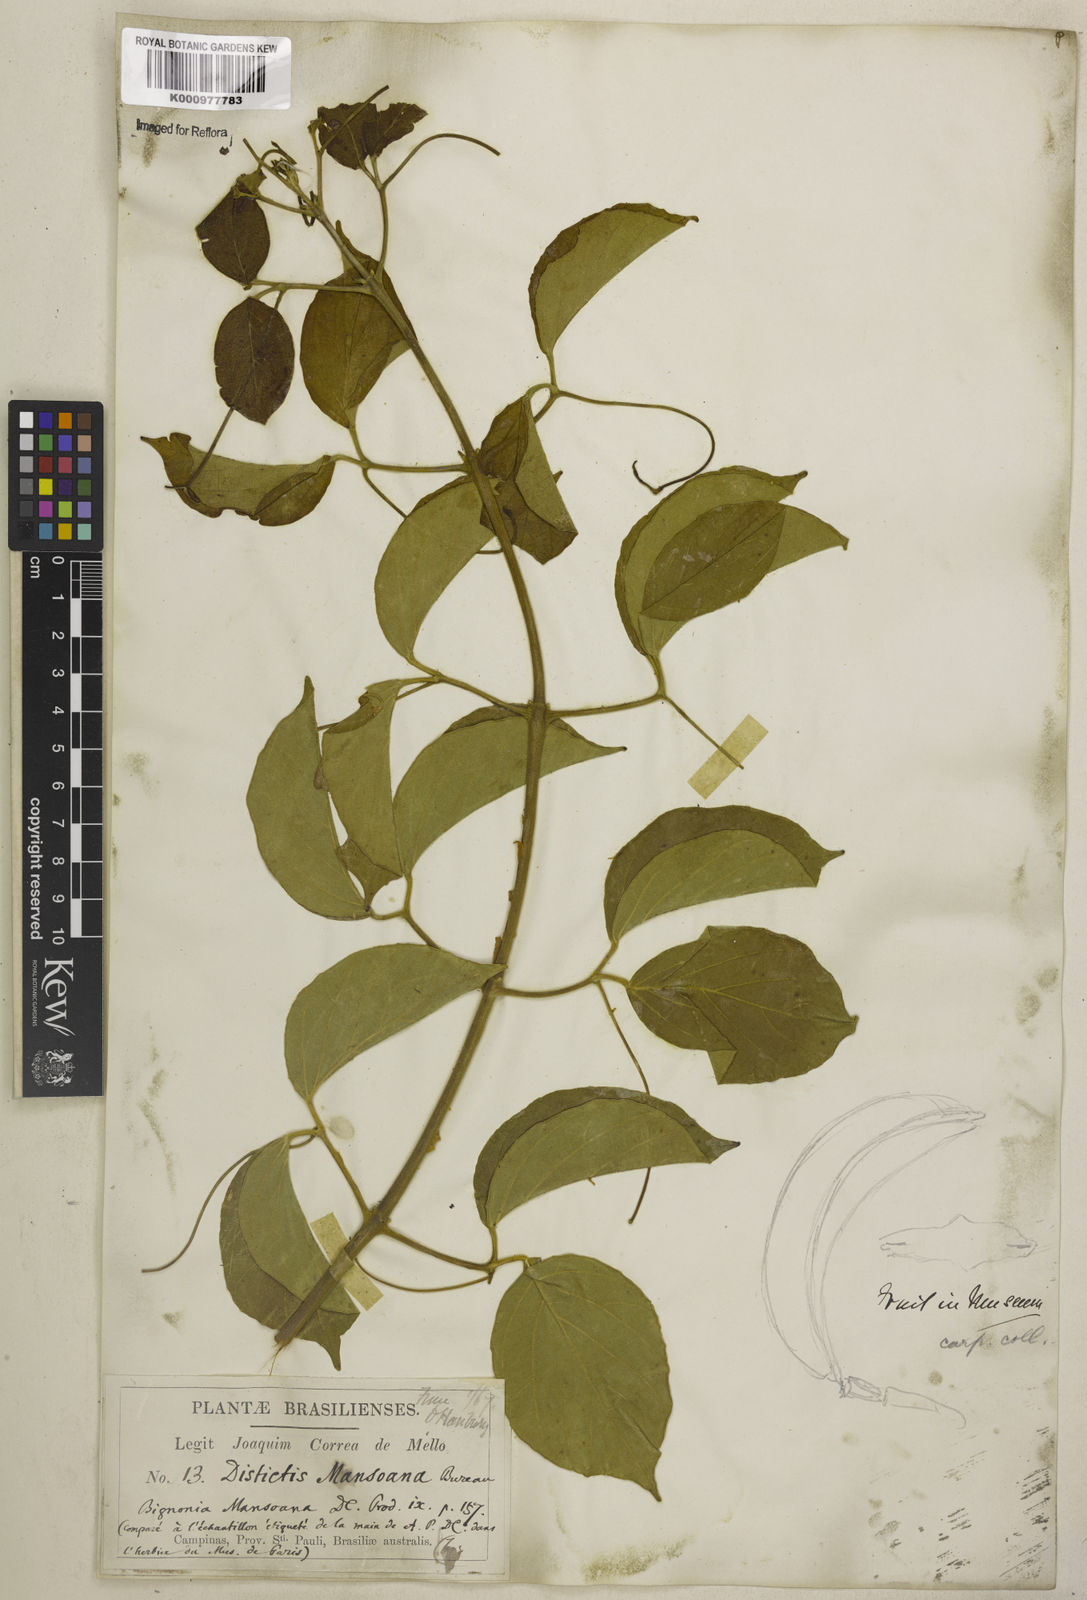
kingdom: Plantae
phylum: Tracheophyta
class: Magnoliopsida
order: Lamiales
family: Bignoniaceae
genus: Amphilophium
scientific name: Amphilophium mansoanum
